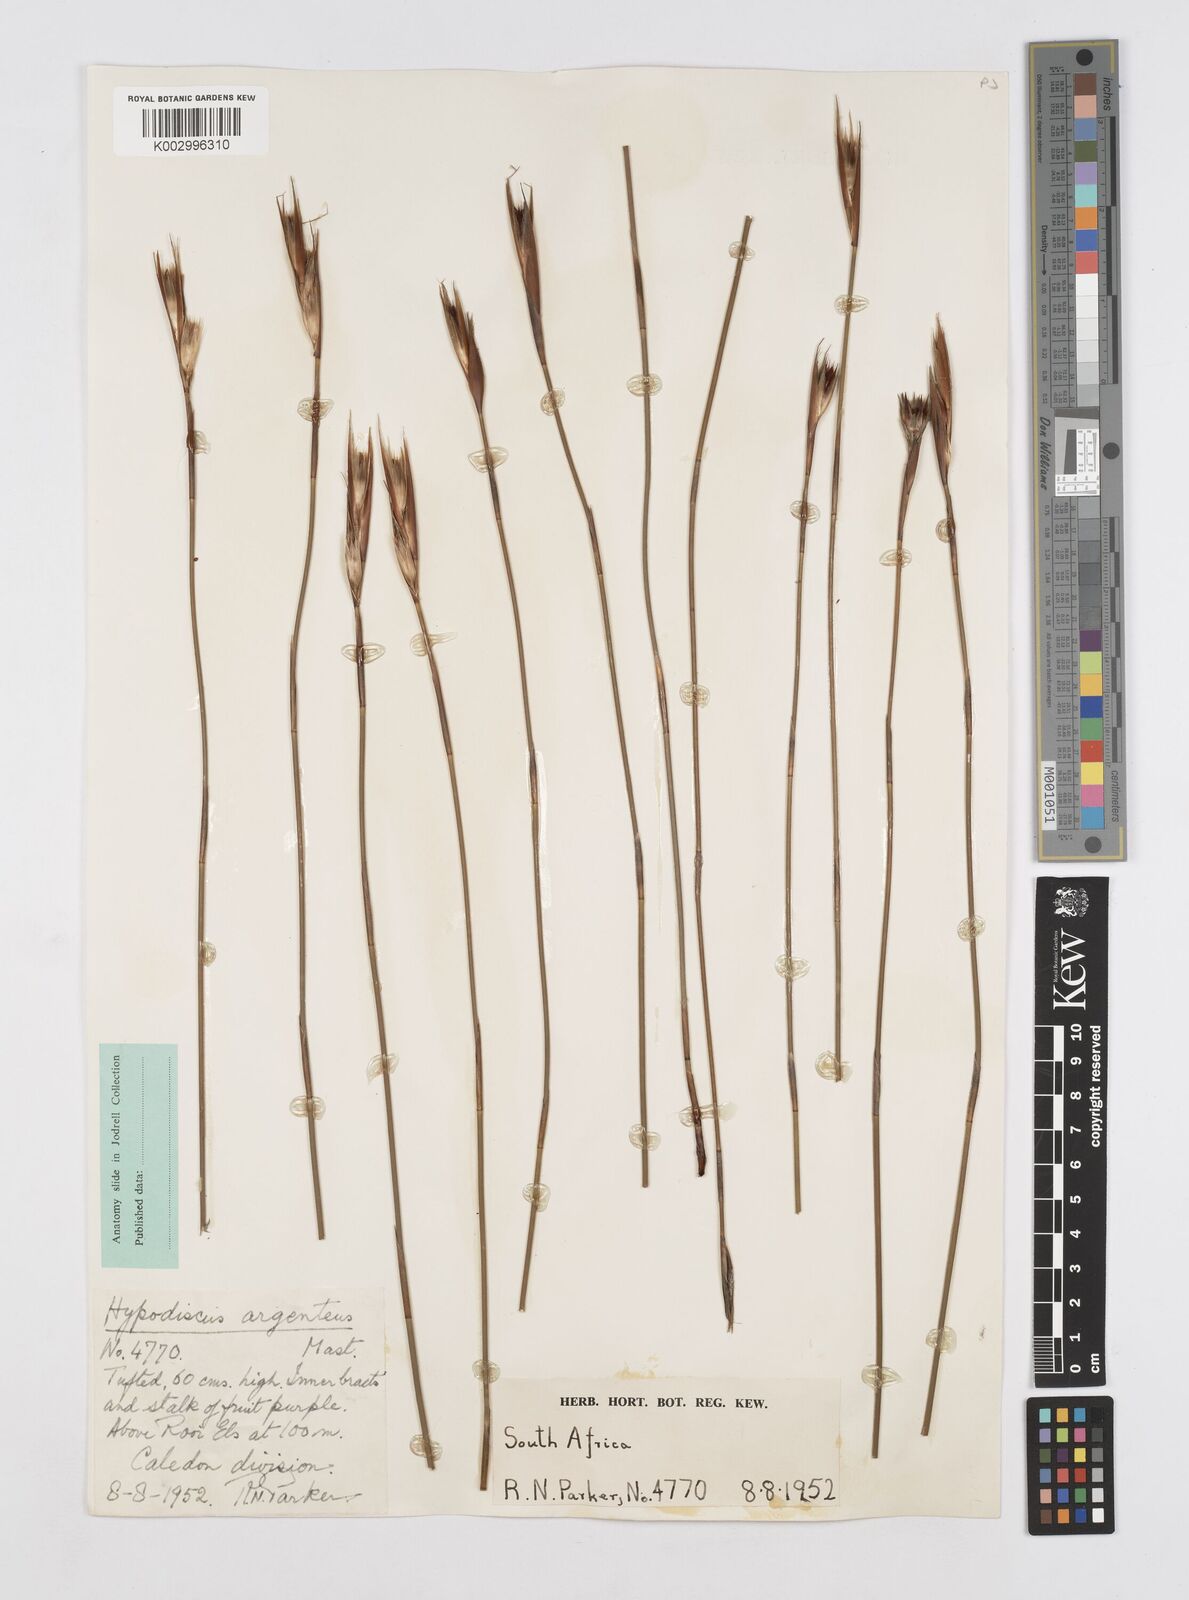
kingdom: Plantae
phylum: Tracheophyta
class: Liliopsida
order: Poales
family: Restionaceae
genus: Hypodiscus
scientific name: Hypodiscus argenteus
